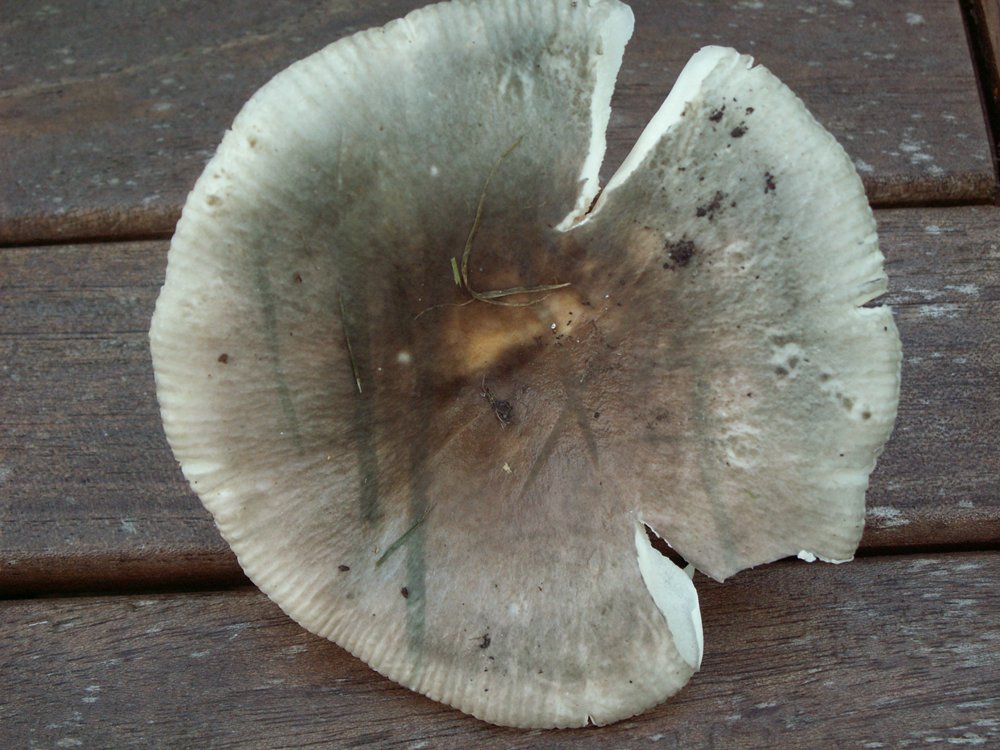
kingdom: Fungi
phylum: Basidiomycota
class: Agaricomycetes
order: Russulales
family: Russulaceae
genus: Russula
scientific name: Russula parazurea
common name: blågrå skørhat
